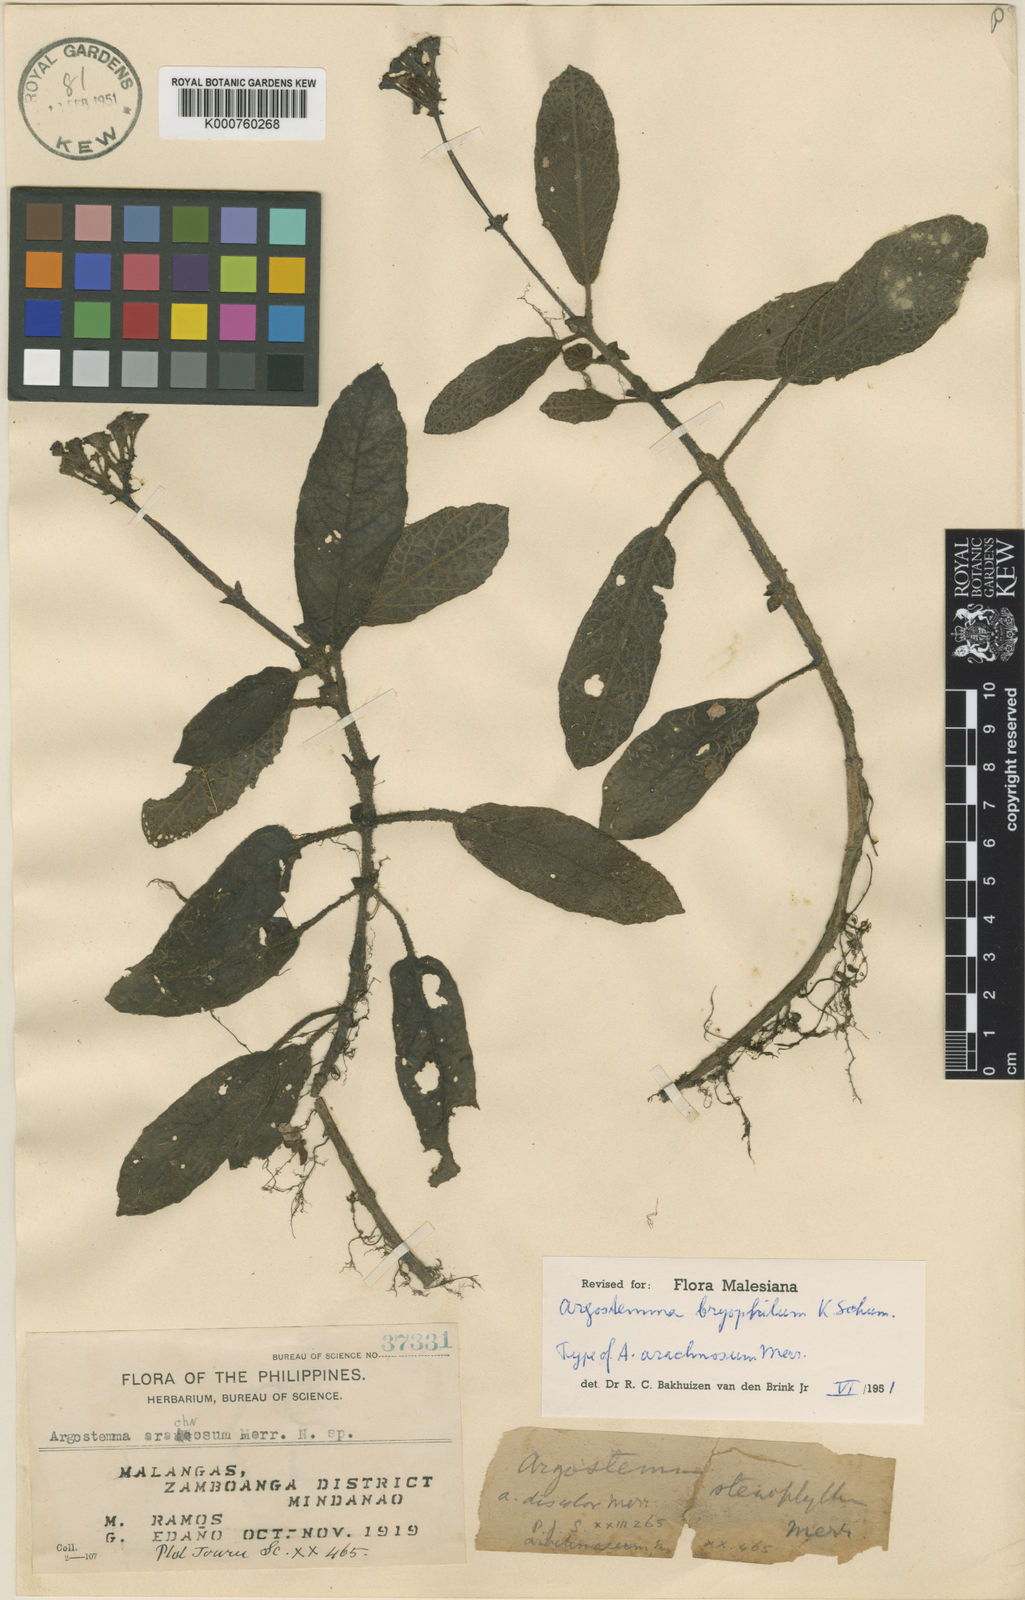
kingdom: Plantae
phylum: Tracheophyta
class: Magnoliopsida
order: Gentianales
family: Rubiaceae
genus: Argostemma
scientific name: Argostemma bryophilum
